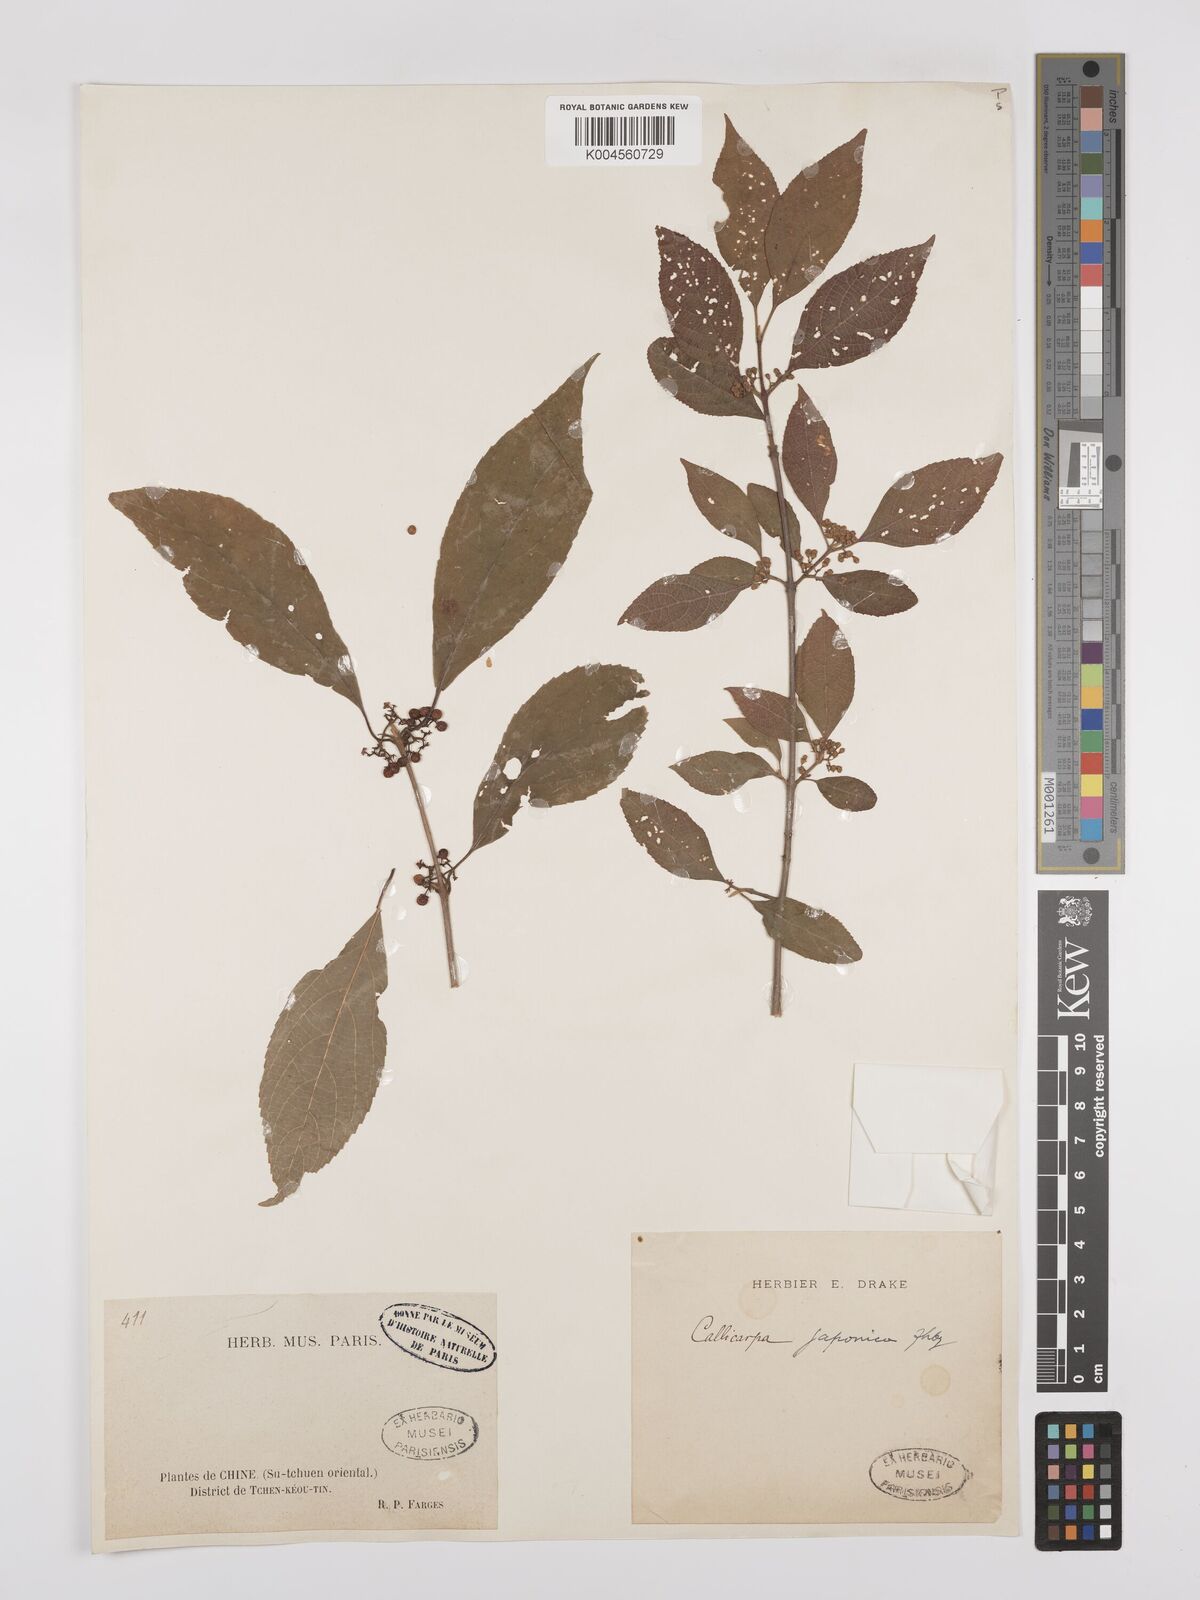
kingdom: Plantae
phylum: Tracheophyta
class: Magnoliopsida
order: Lamiales
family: Lamiaceae
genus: Callicarpa
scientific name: Callicarpa japonica
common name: Japanese beauty-berry
